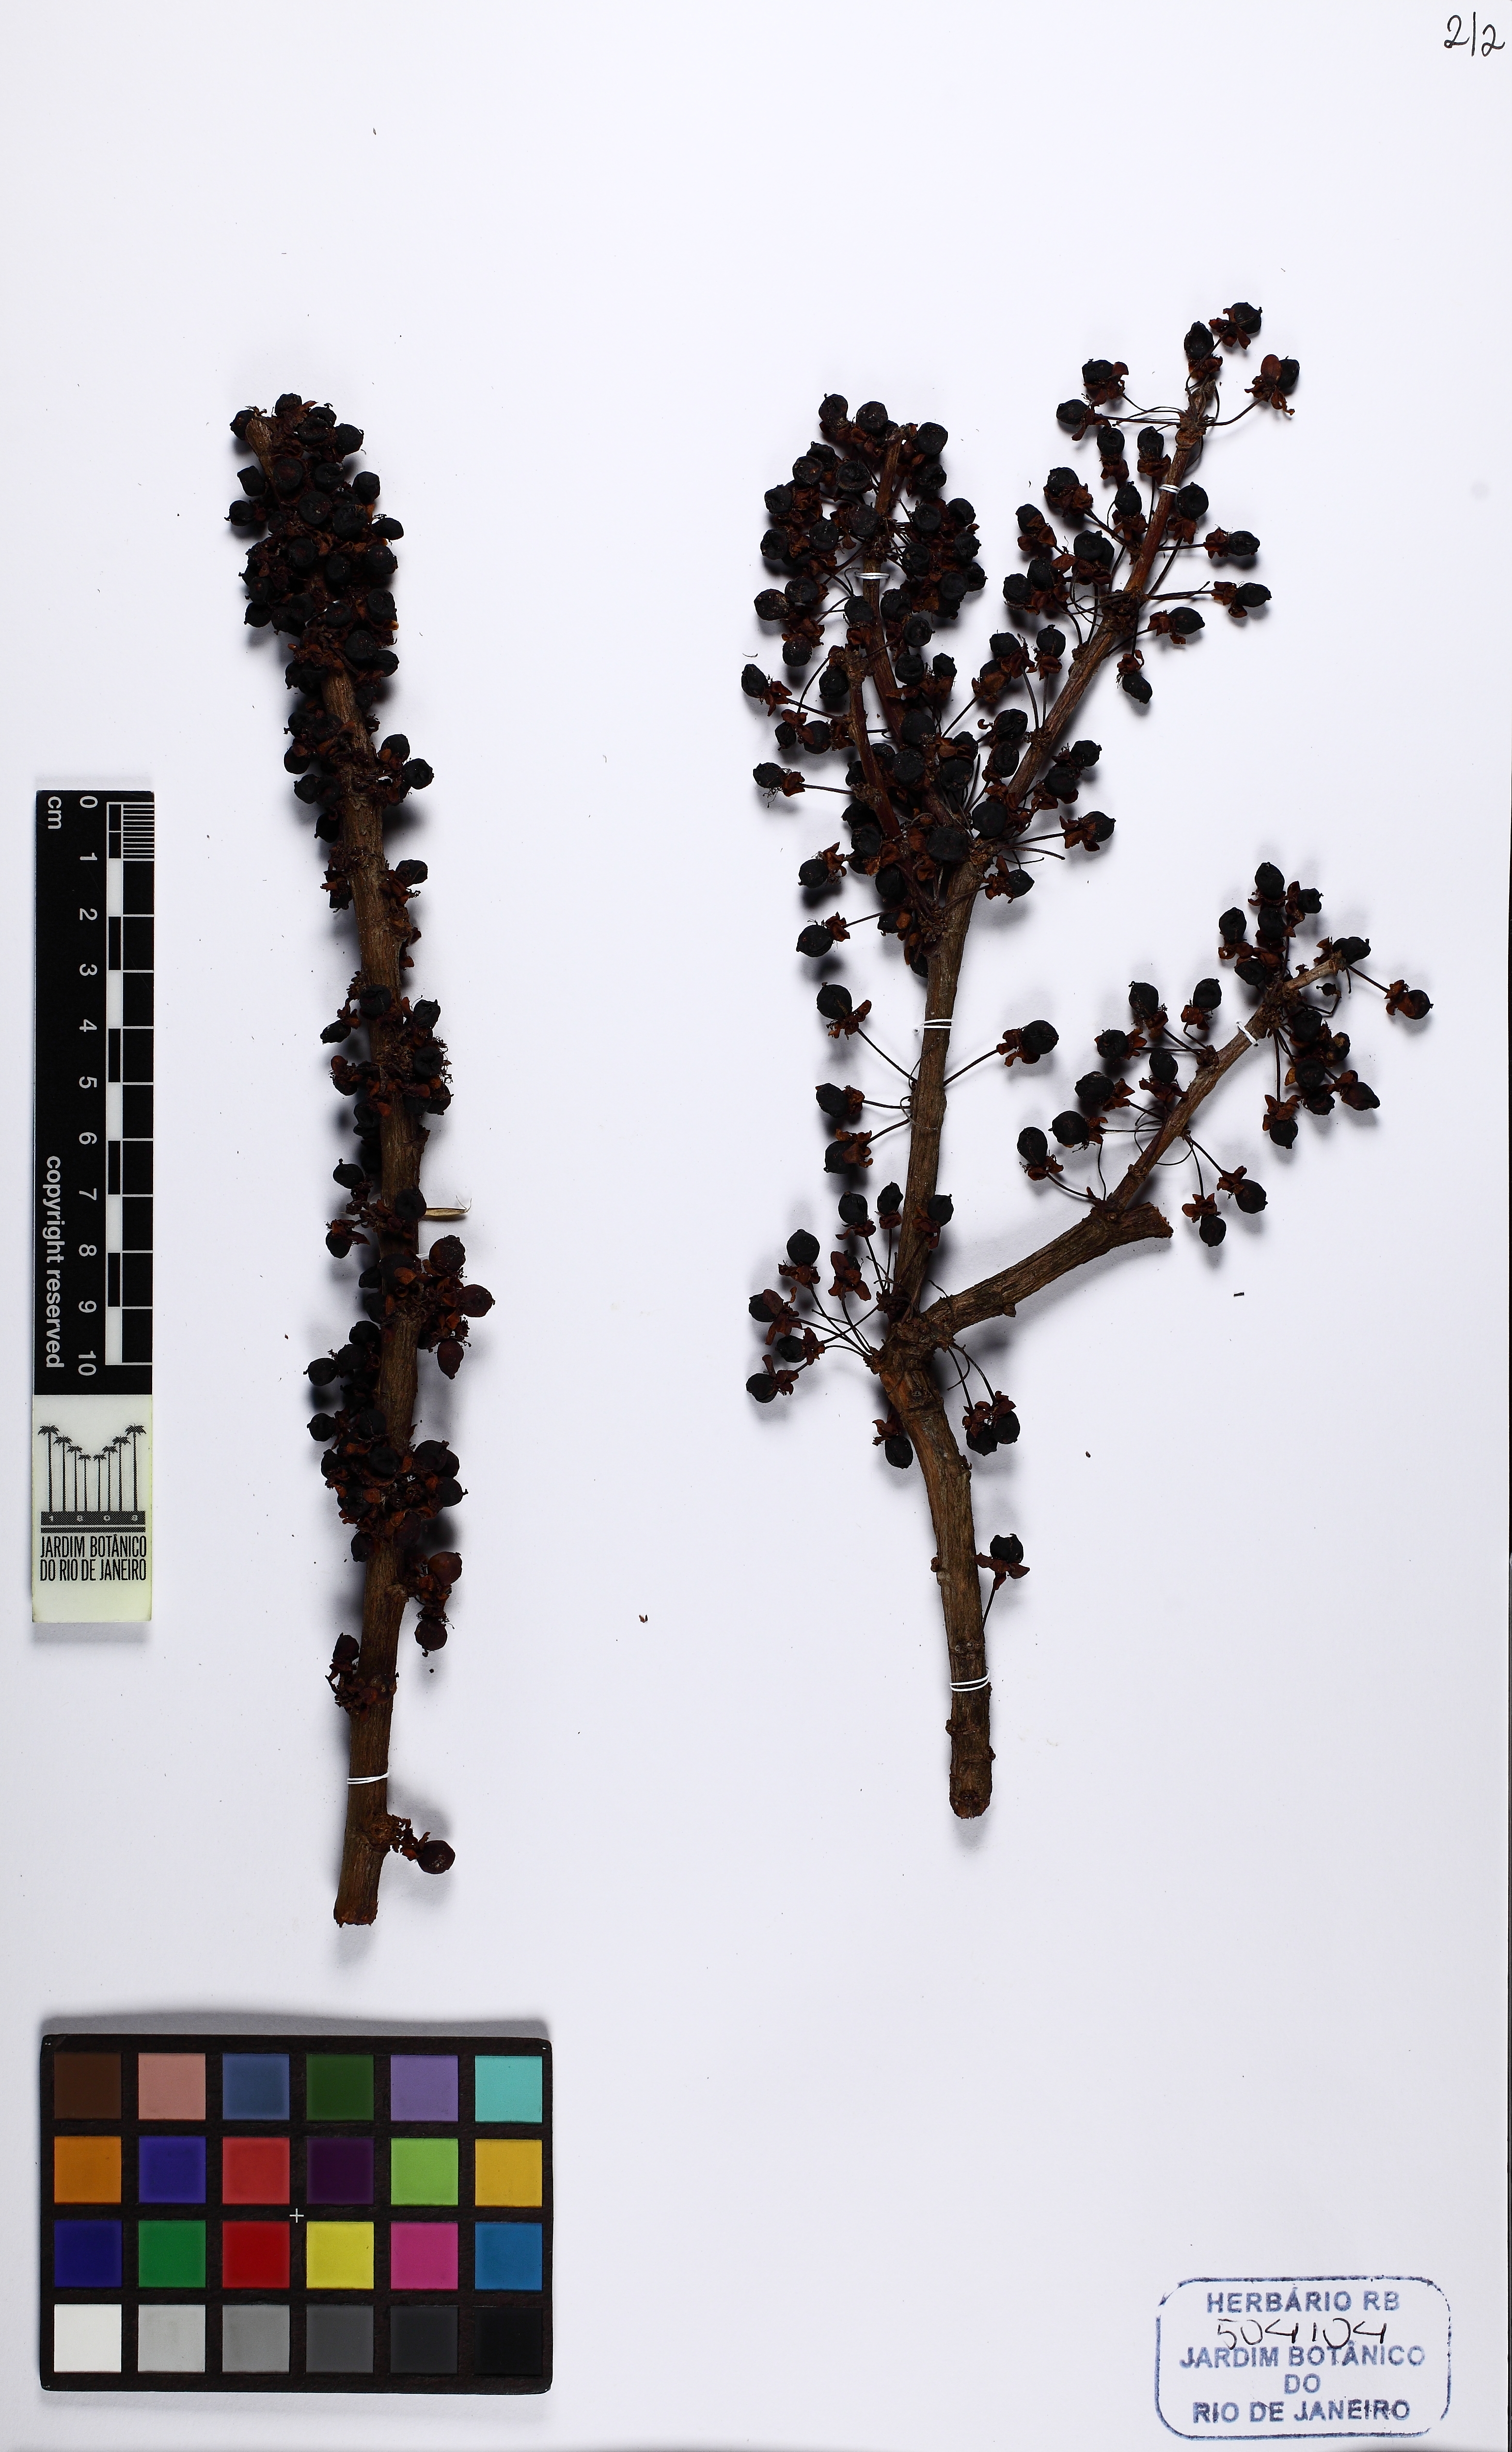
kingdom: Plantae
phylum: Tracheophyta
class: Magnoliopsida
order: Dilleniales
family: Dilleniaceae
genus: Doliocarpus
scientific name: Doliocarpus dentatus
